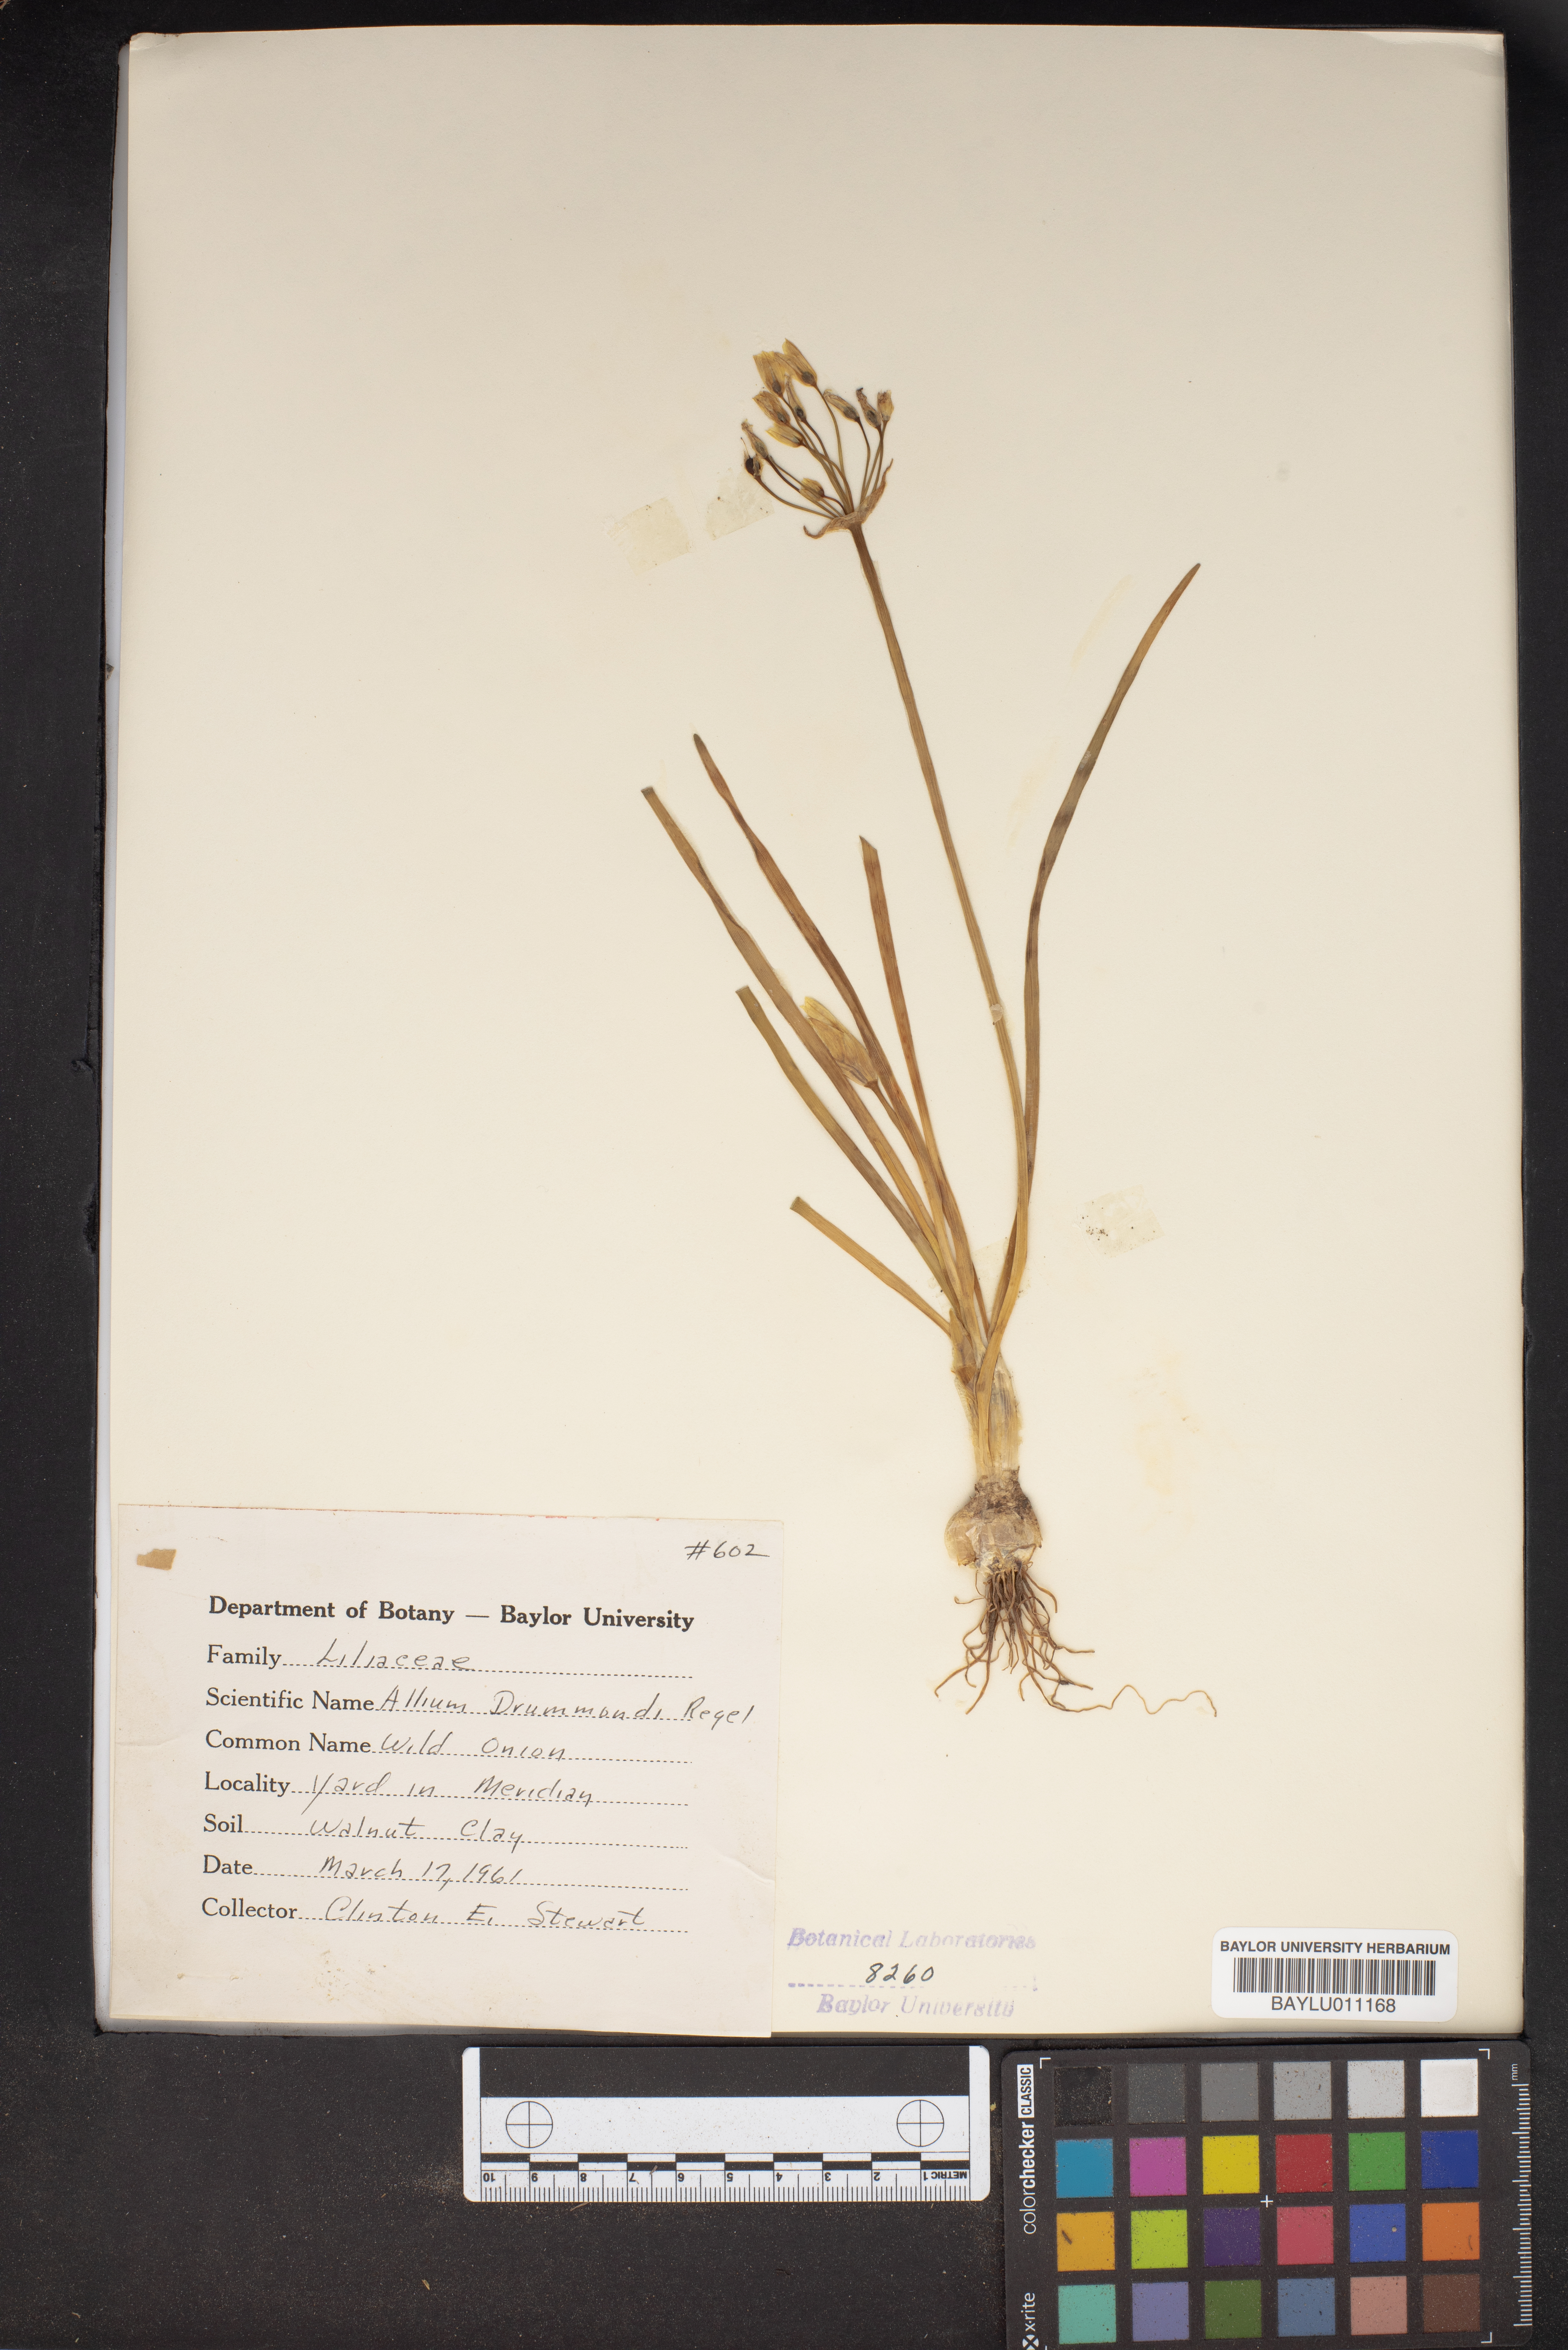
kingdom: Plantae
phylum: Tracheophyta
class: Liliopsida
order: Asparagales
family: Amaryllidaceae
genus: Allium
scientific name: Allium drummondii
